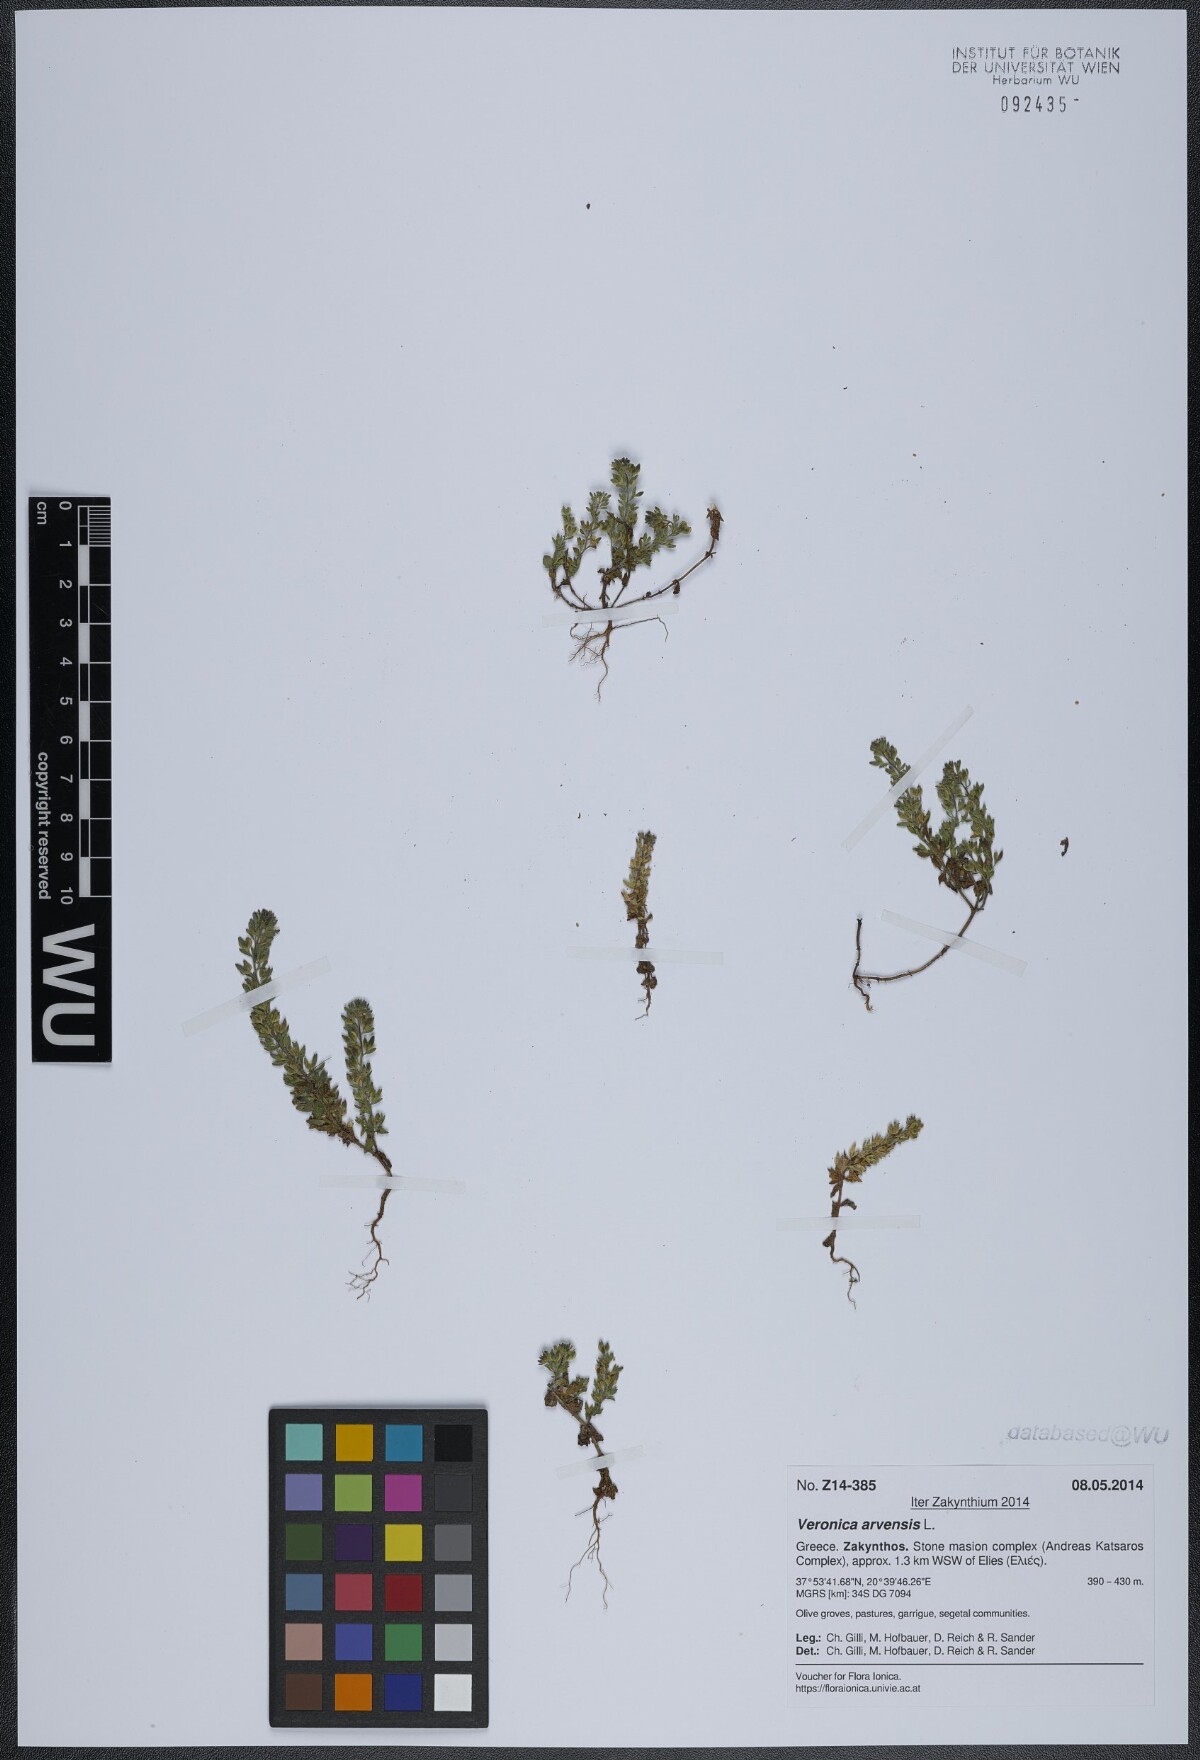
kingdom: Plantae
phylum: Tracheophyta
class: Magnoliopsida
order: Lamiales
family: Plantaginaceae
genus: Veronica
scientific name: Veronica arvensis
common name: Corn speedwell
